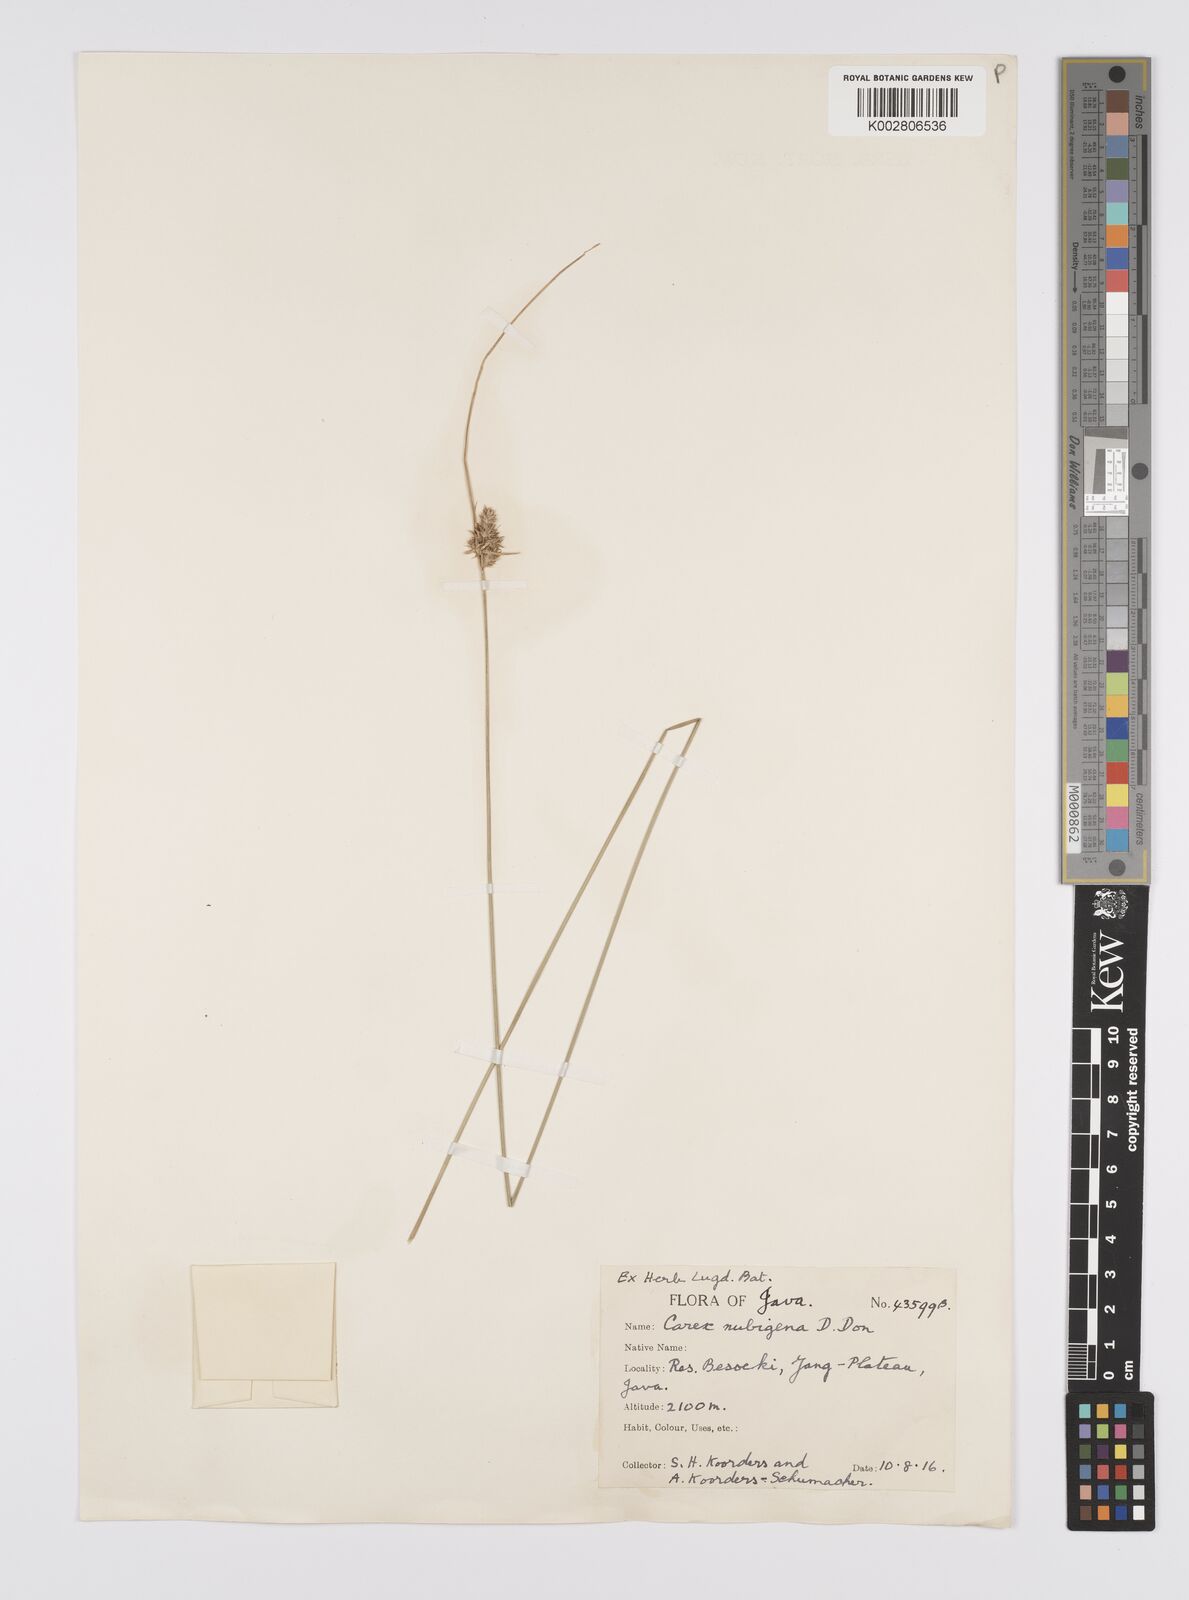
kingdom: Plantae
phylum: Tracheophyta
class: Liliopsida
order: Poales
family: Cyperaceae
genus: Carex
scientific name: Carex
